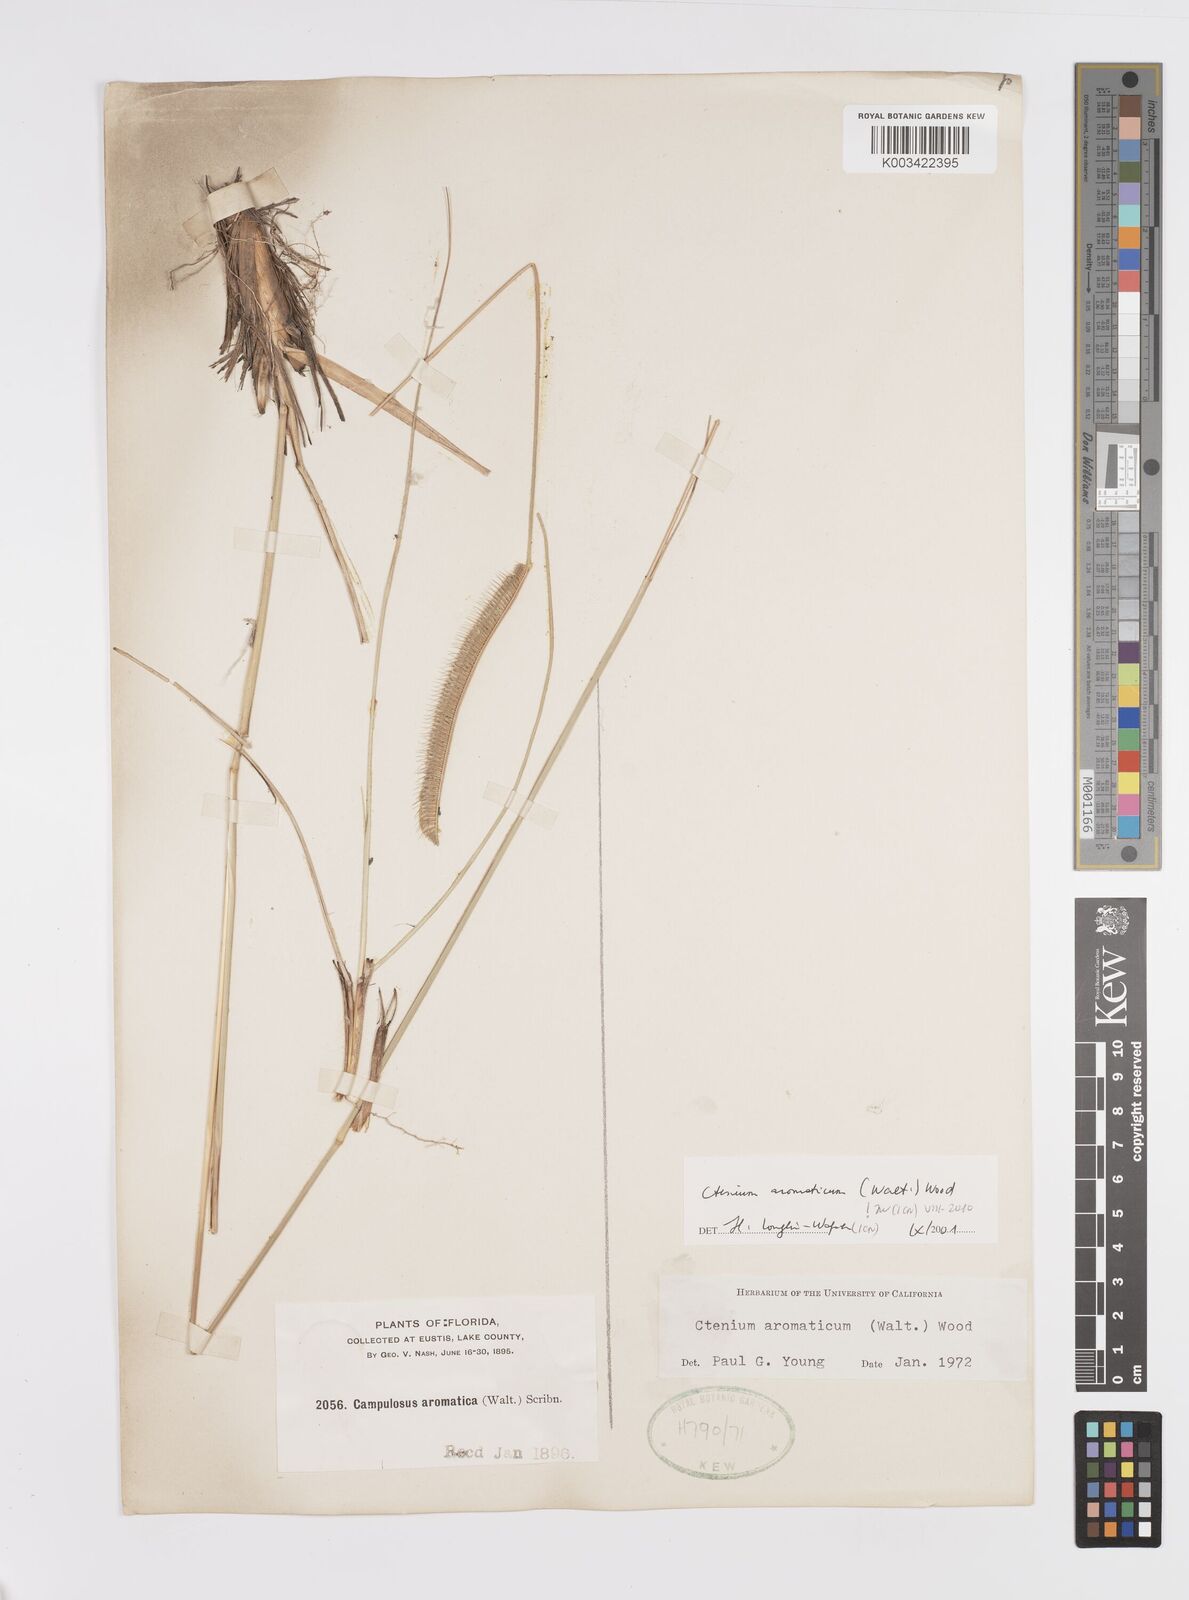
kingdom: Plantae
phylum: Tracheophyta
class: Liliopsida
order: Poales
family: Poaceae
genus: Ctenium
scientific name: Ctenium aromaticum
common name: Toothache grass
